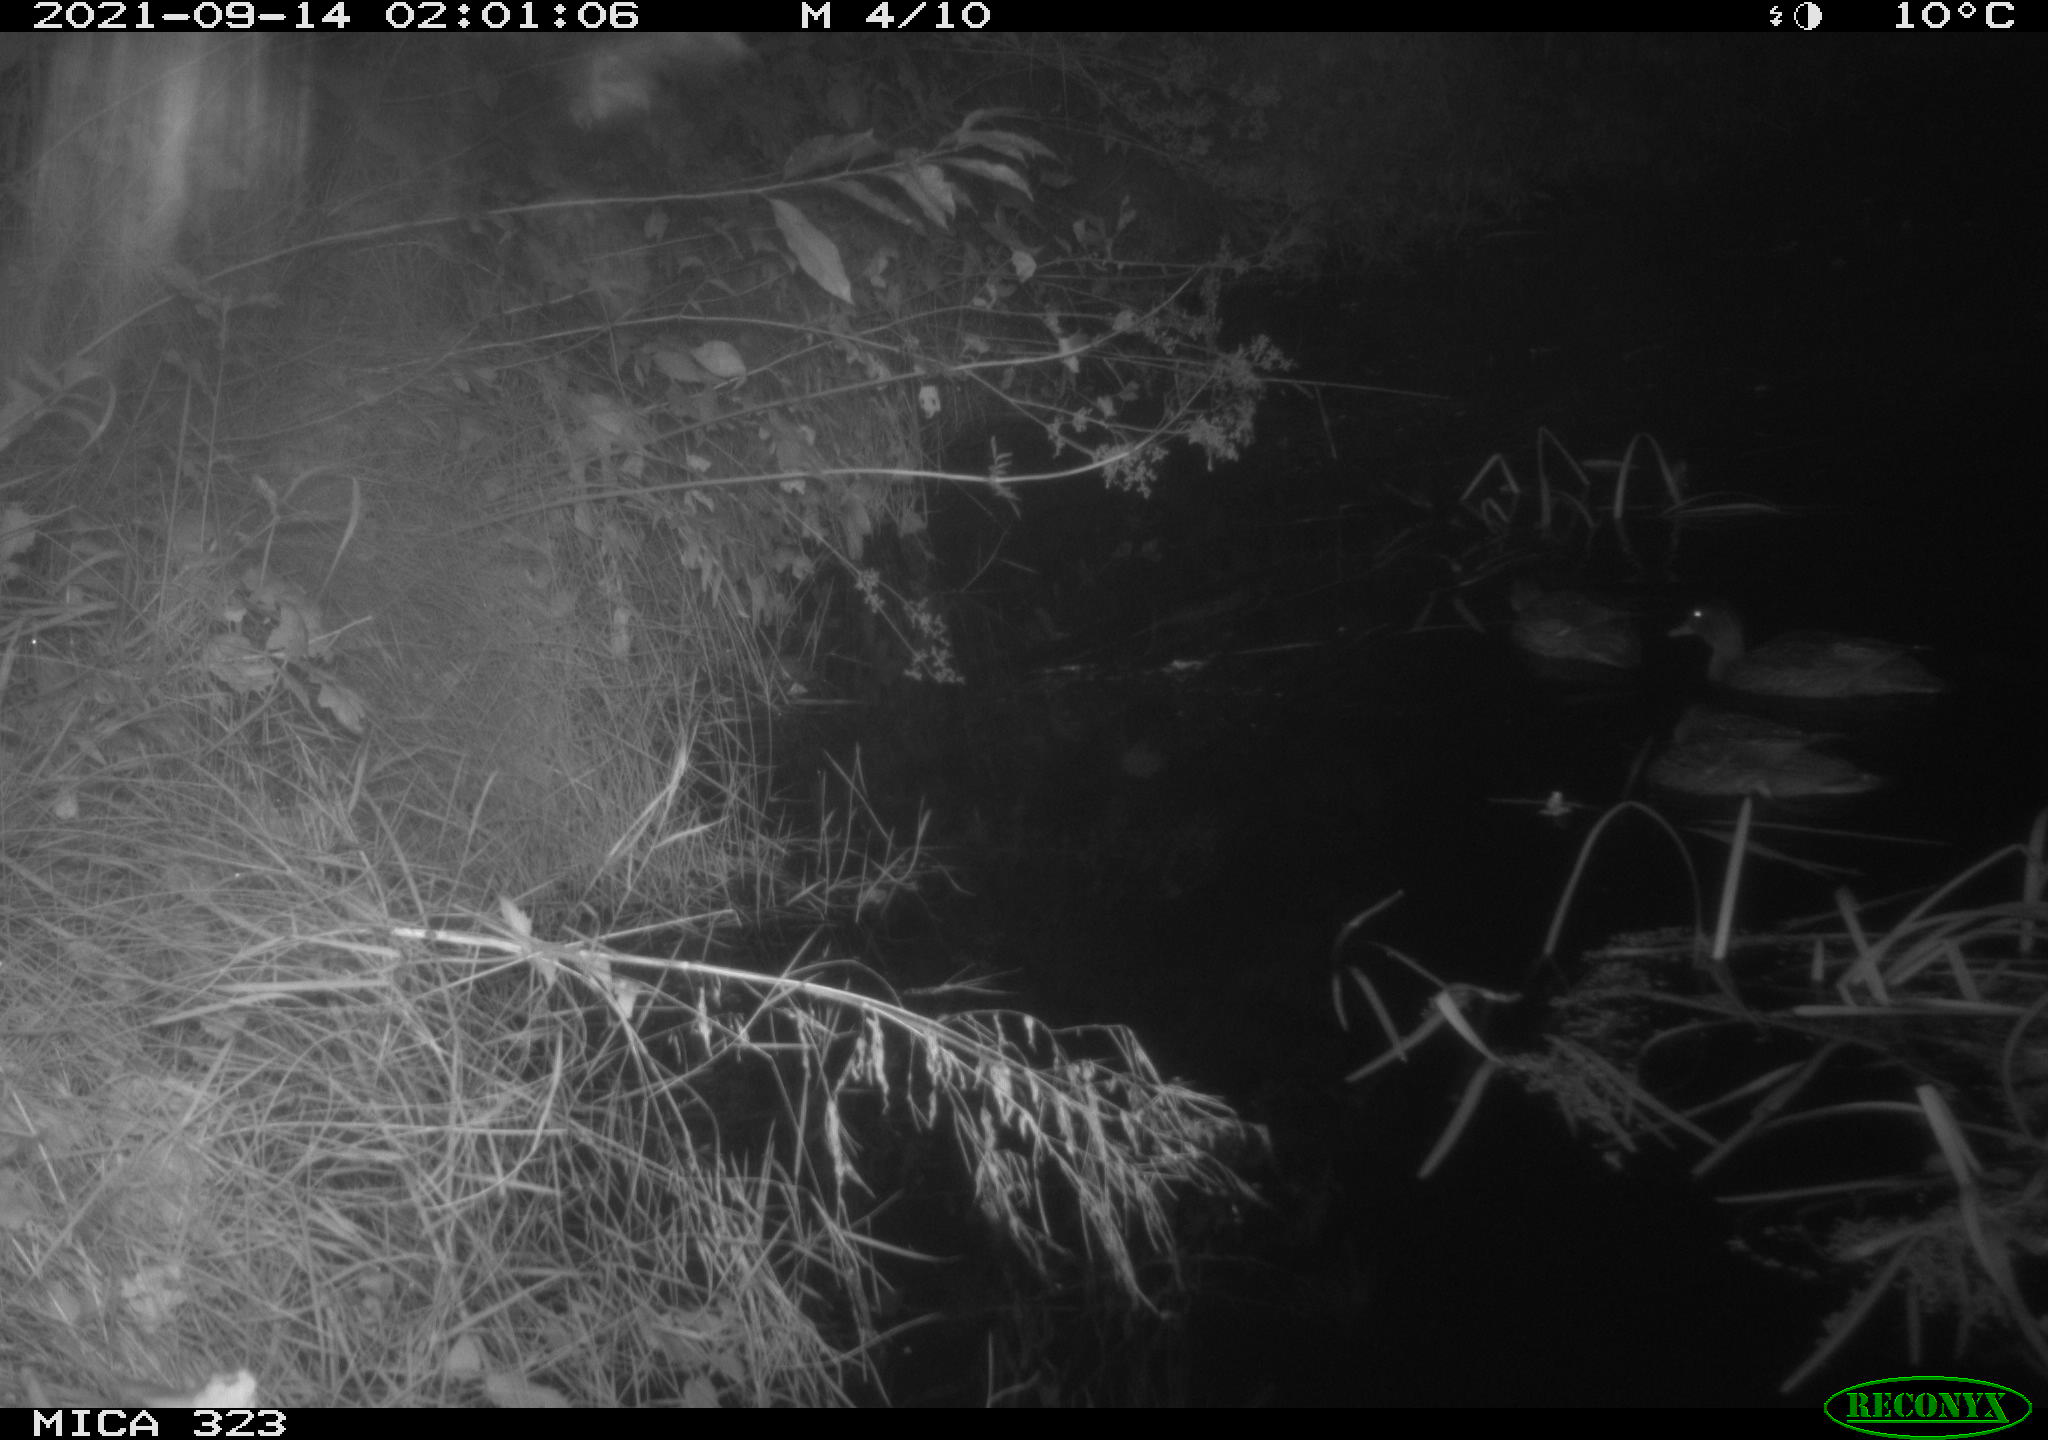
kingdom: Animalia
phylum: Chordata
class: Aves
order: Anseriformes
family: Anatidae
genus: Anas
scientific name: Anas
